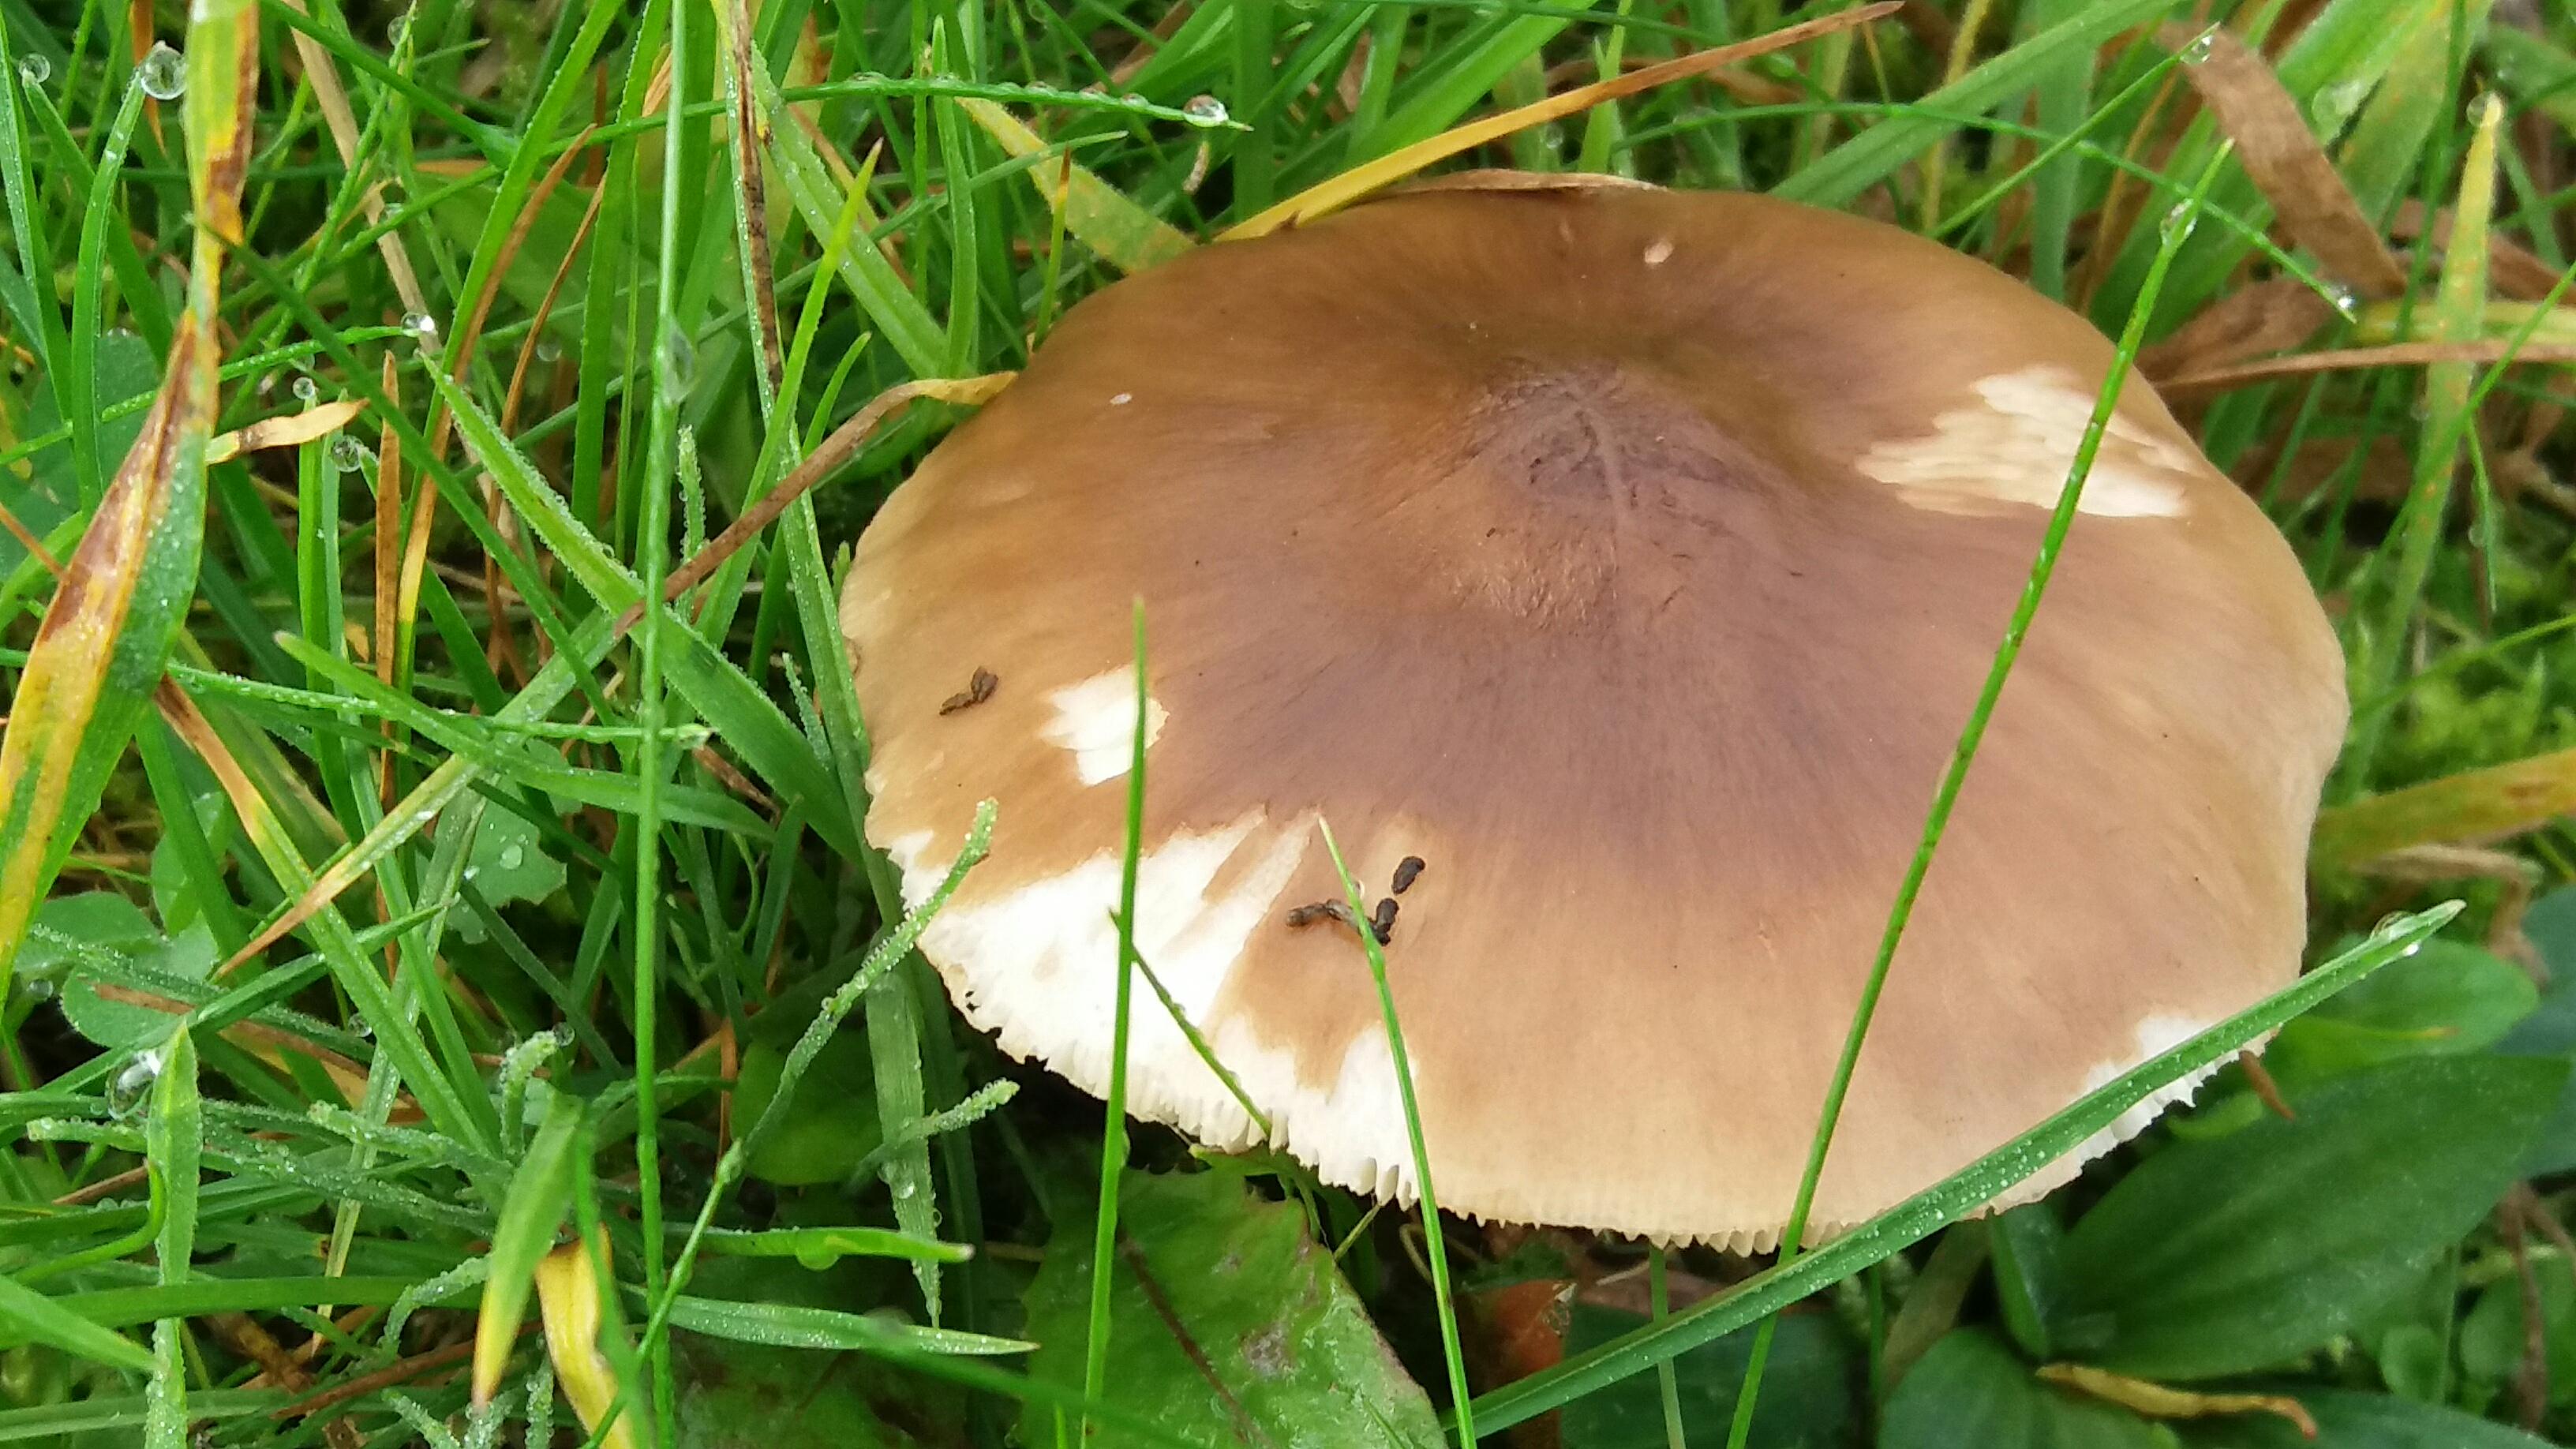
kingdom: Fungi
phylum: Basidiomycota
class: Agaricomycetes
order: Agaricales
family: Pluteaceae
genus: Pluteus
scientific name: Pluteus cervinus
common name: sodfarvet skærmhat
